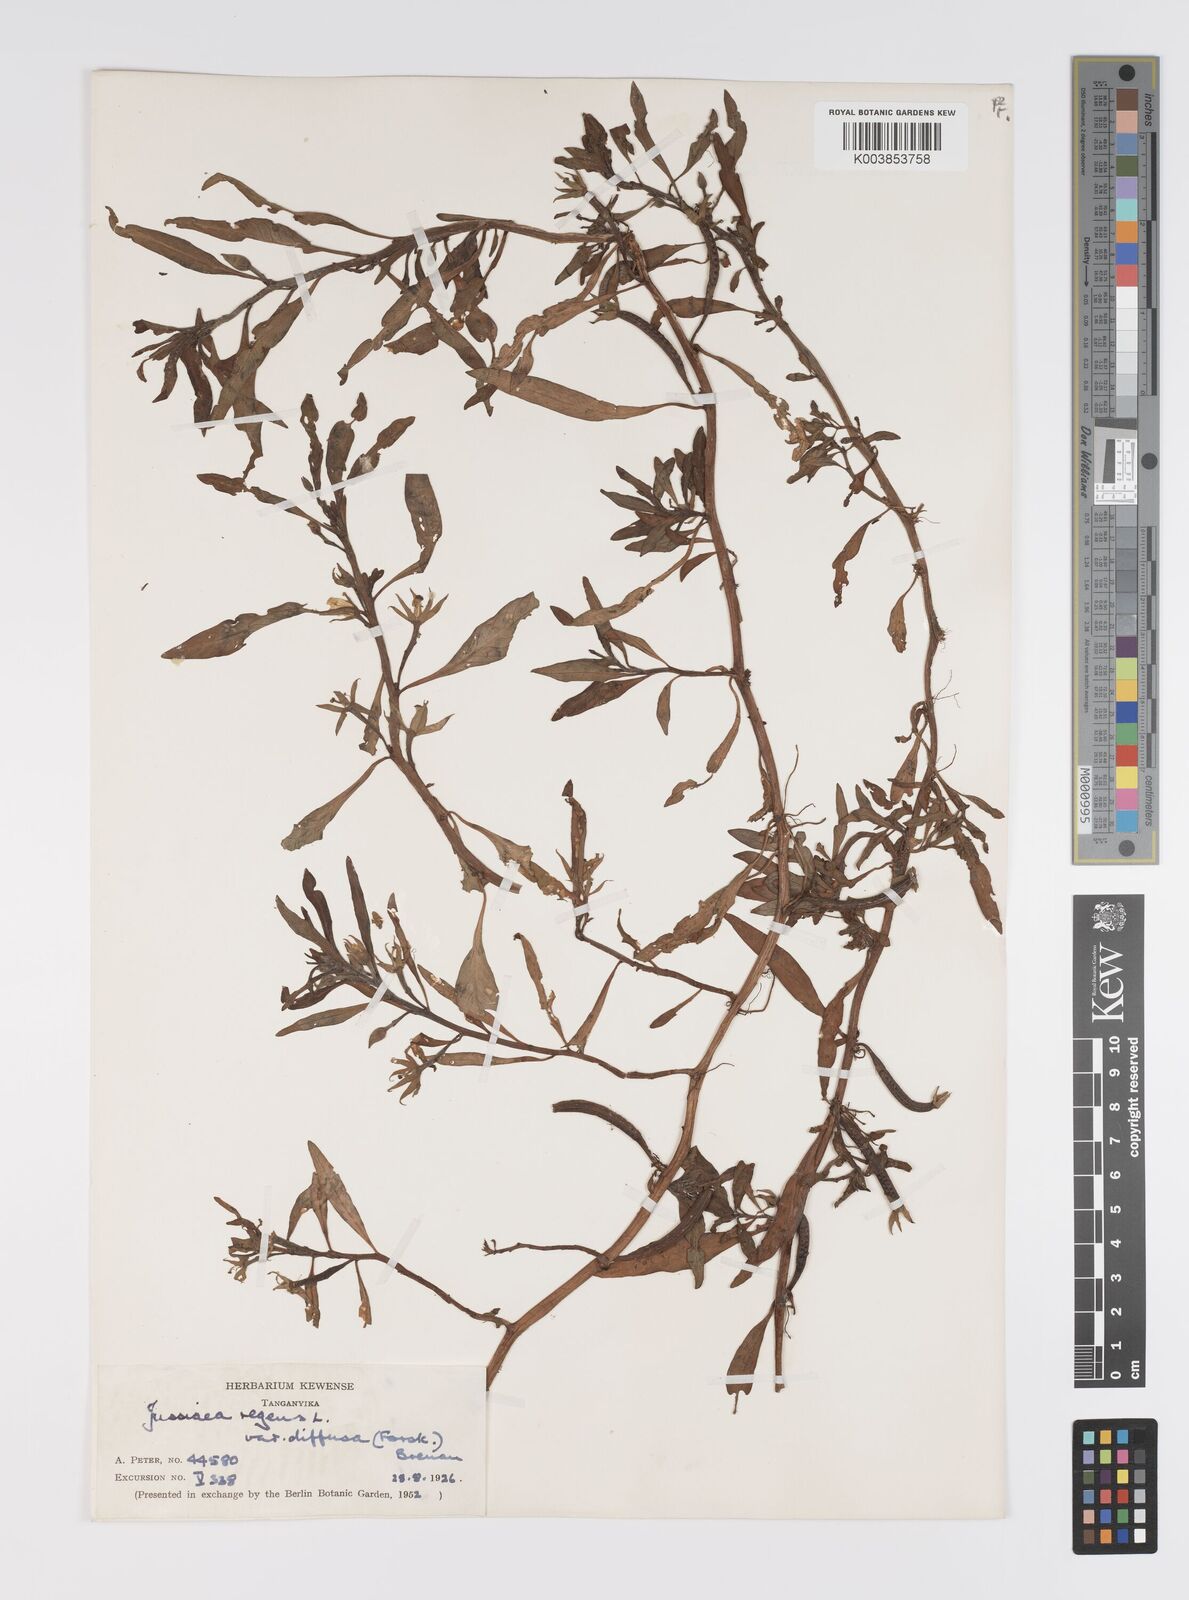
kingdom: Plantae
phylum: Tracheophyta
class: Magnoliopsida
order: Myrtales
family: Onagraceae
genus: Ludwigia
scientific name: Ludwigia repens
